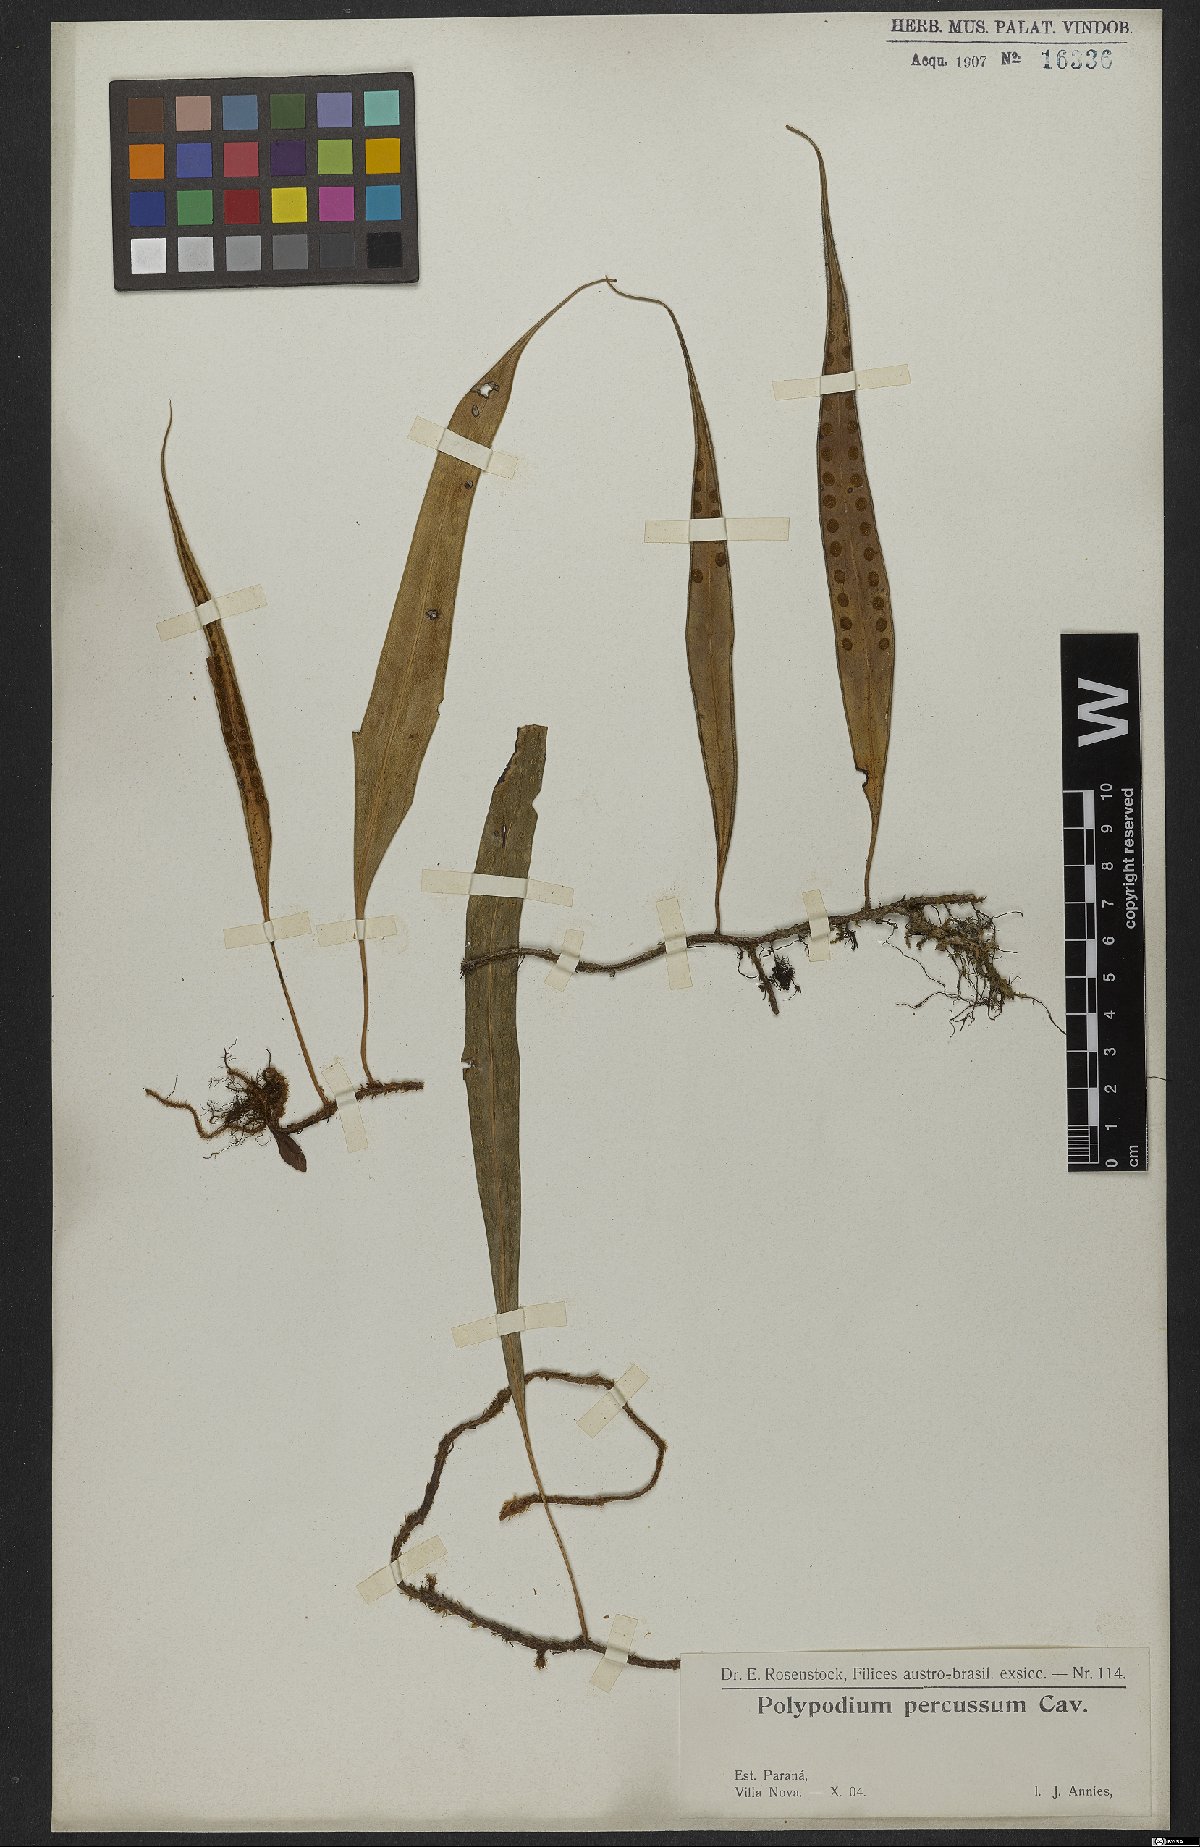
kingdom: Plantae
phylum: Tracheophyta
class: Polypodiopsida
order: Polypodiales
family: Polypodiaceae
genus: Microgramma
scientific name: Microgramma percussa
